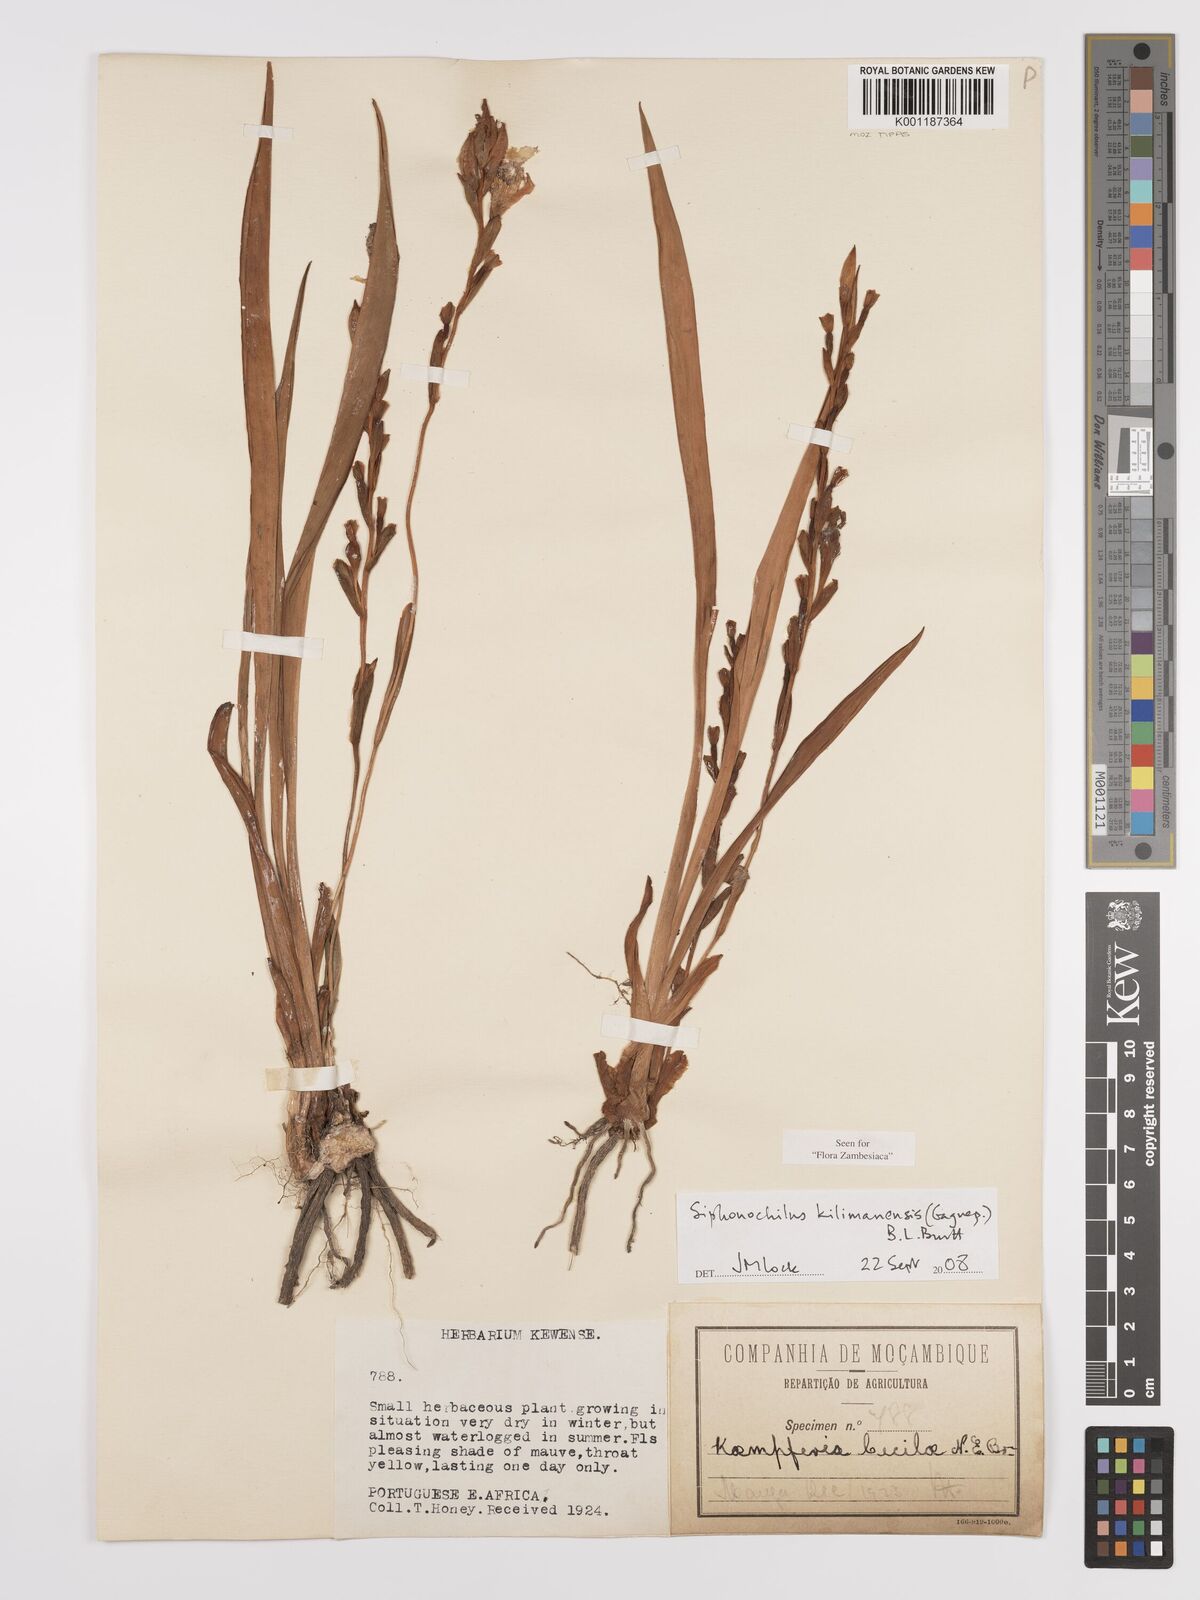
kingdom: Plantae
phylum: Tracheophyta
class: Liliopsida
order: Zingiberales
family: Zingiberaceae
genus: Siphonochilus
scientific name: Siphonochilus
